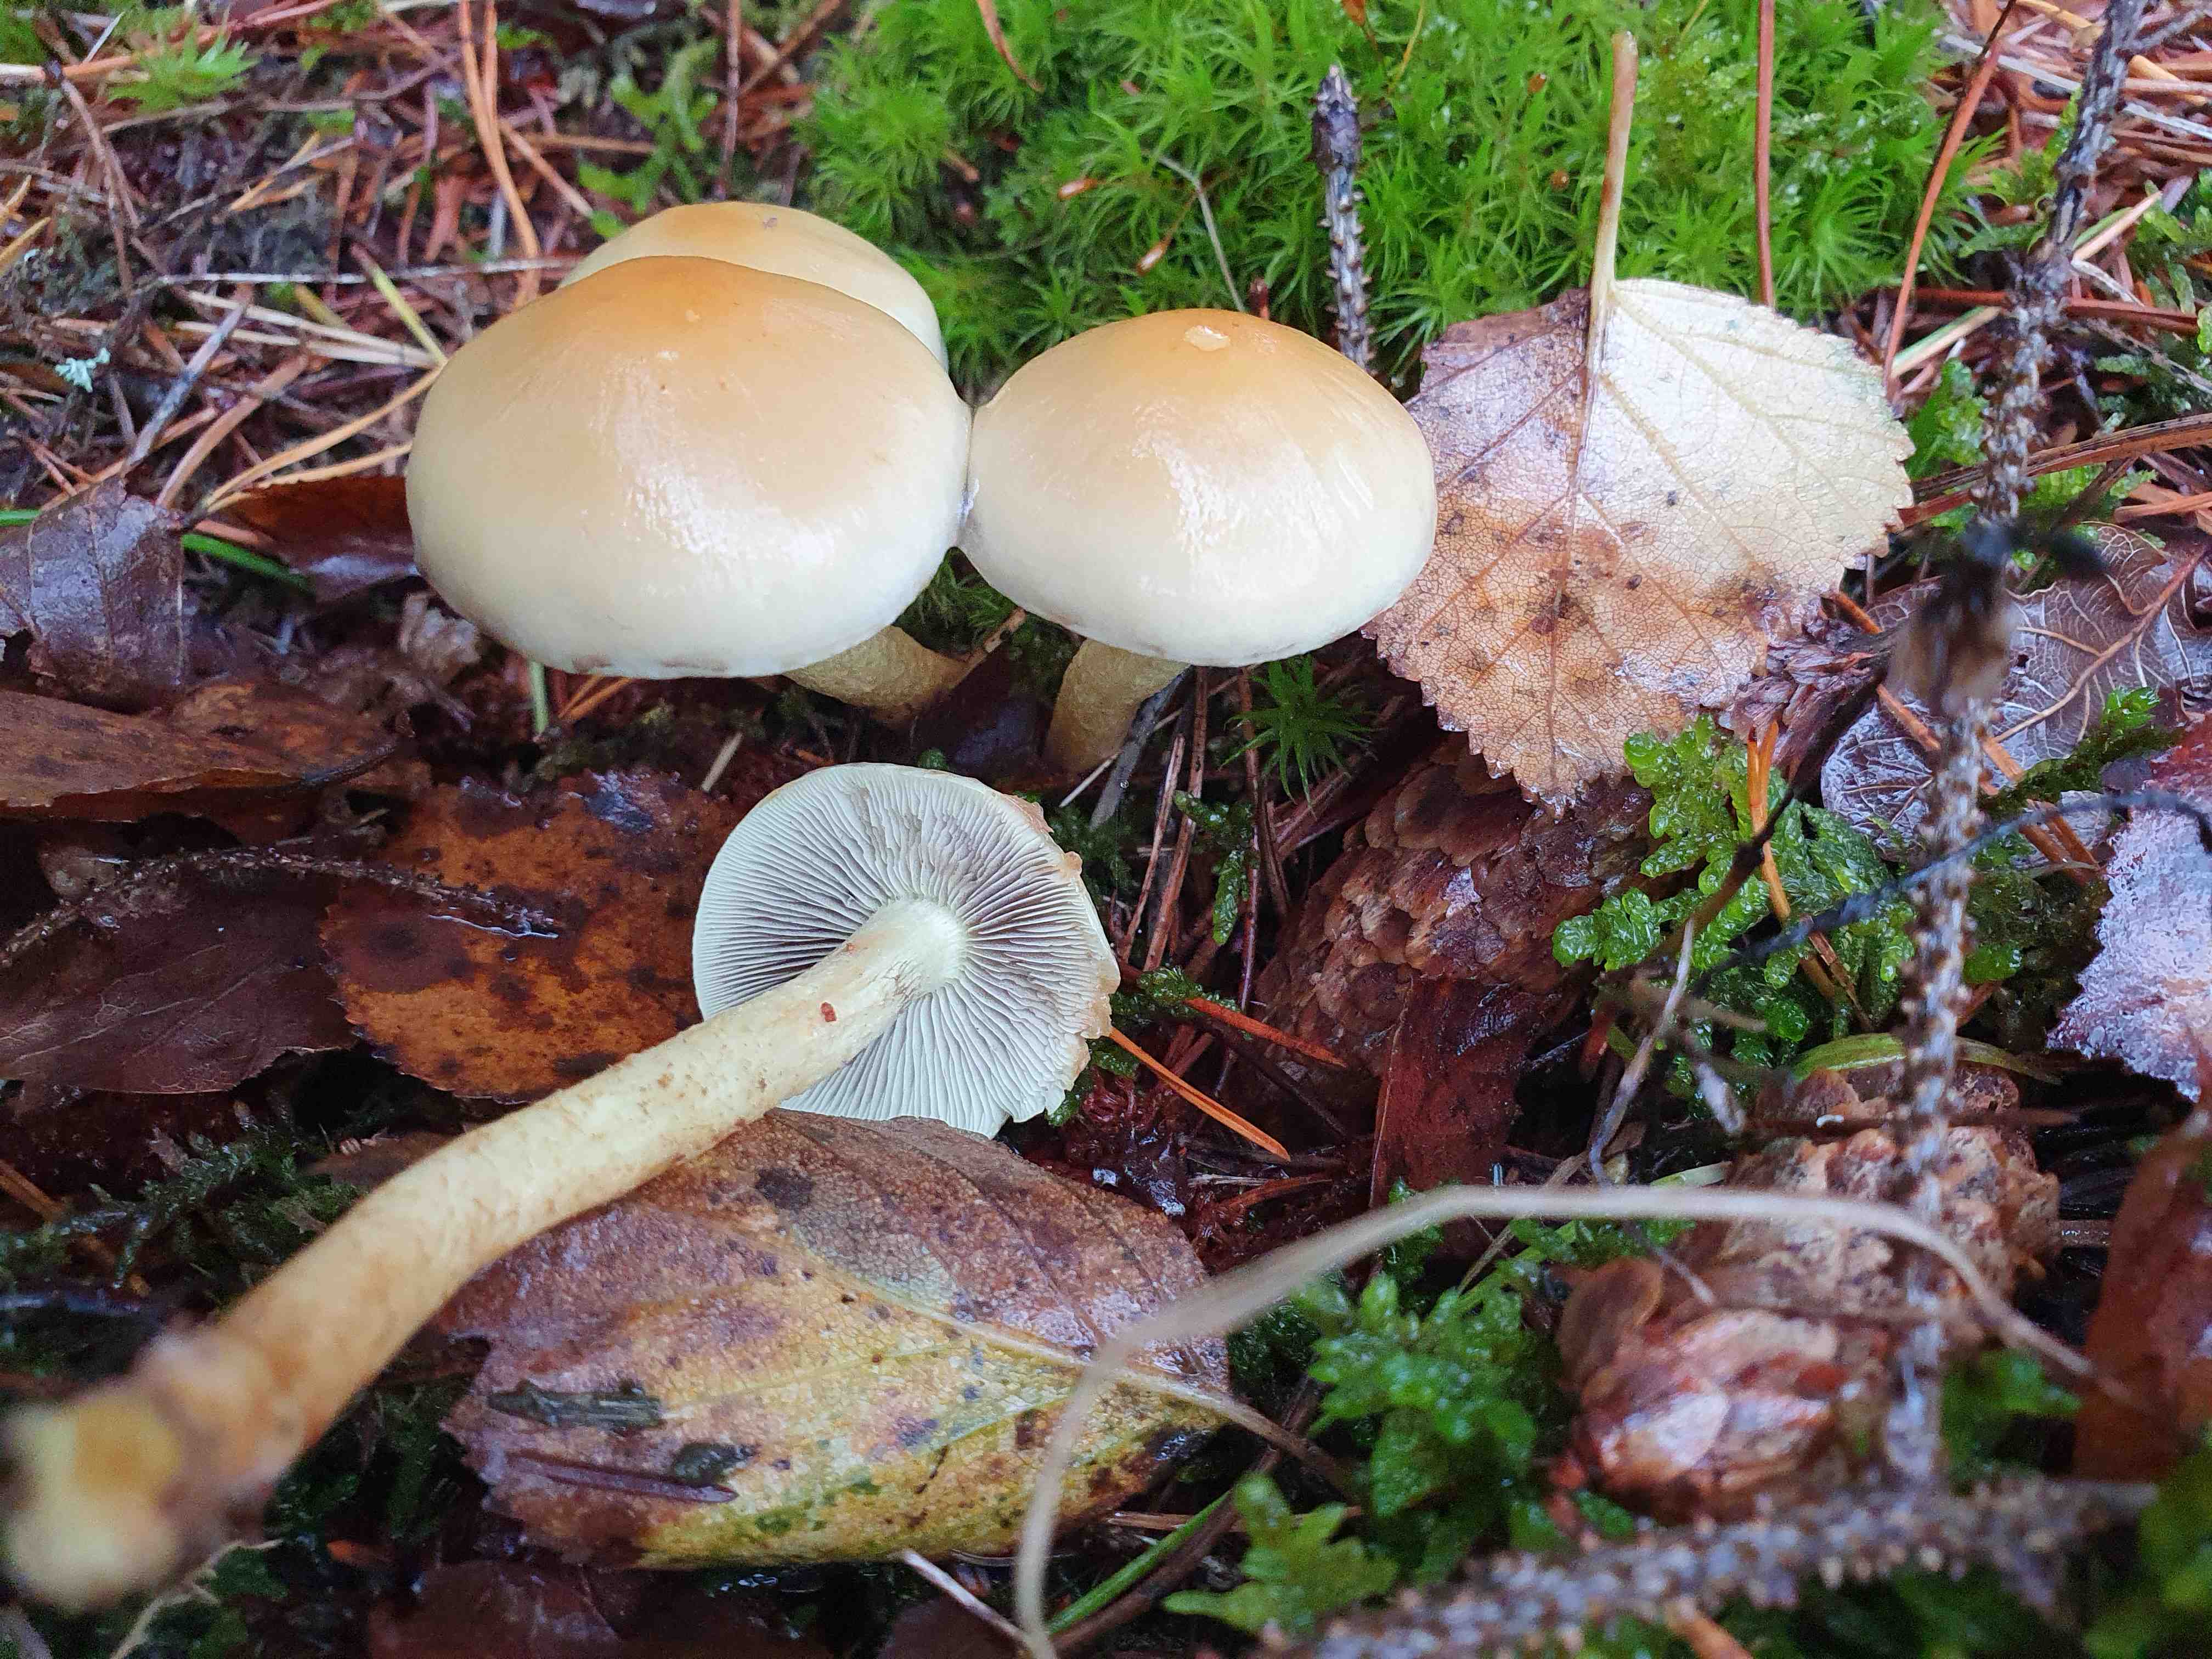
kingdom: Fungi
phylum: Basidiomycota
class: Agaricomycetes
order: Agaricales
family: Strophariaceae
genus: Hypholoma
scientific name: Hypholoma fasciculare
